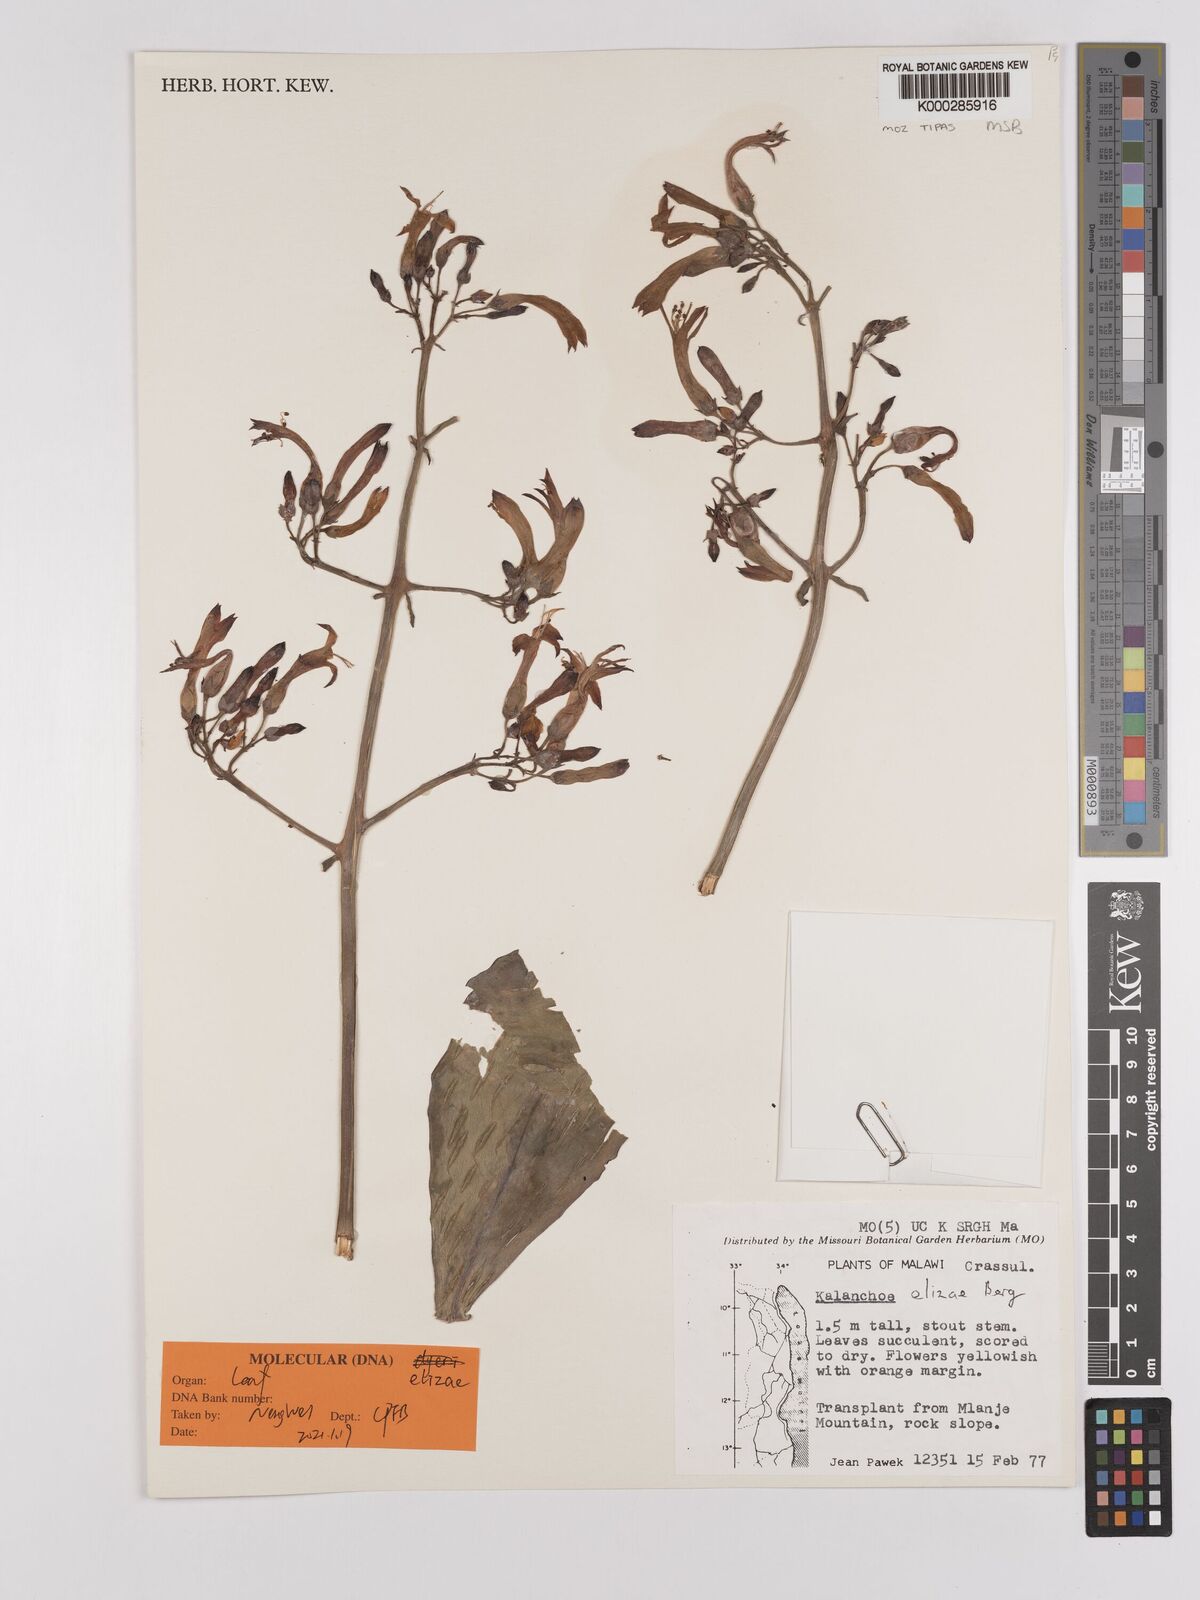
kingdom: Plantae
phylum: Tracheophyta
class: Magnoliopsida
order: Saxifragales
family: Crassulaceae
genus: Kalanchoe
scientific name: Kalanchoe elizae
